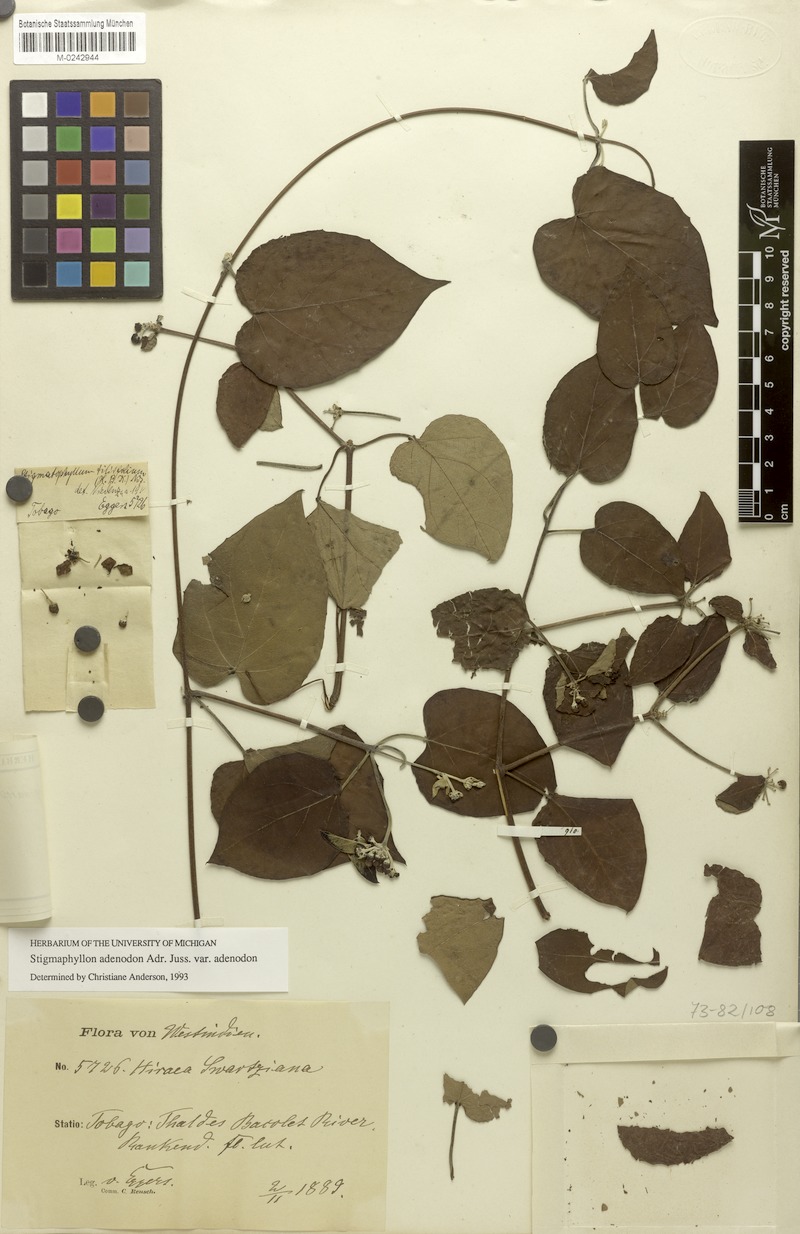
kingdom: Plantae
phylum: Tracheophyta
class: Magnoliopsida
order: Malpighiales
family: Malpighiaceae
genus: Stigmaphyllon
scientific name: Stigmaphyllon adenodon
